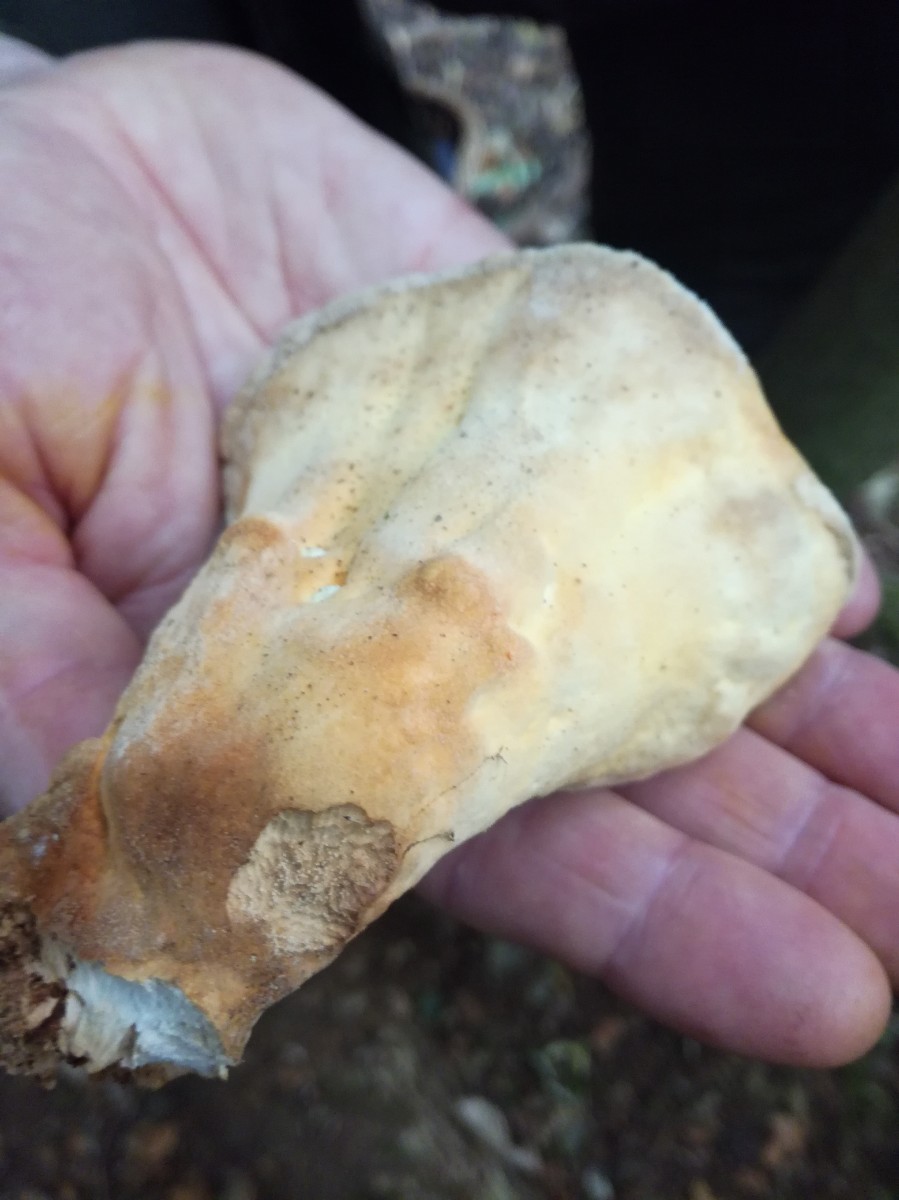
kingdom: Fungi
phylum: Basidiomycota
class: Agaricomycetes
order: Polyporales
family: Laetiporaceae
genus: Laetiporus
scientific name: Laetiporus sulphureus
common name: svovlporesvamp
